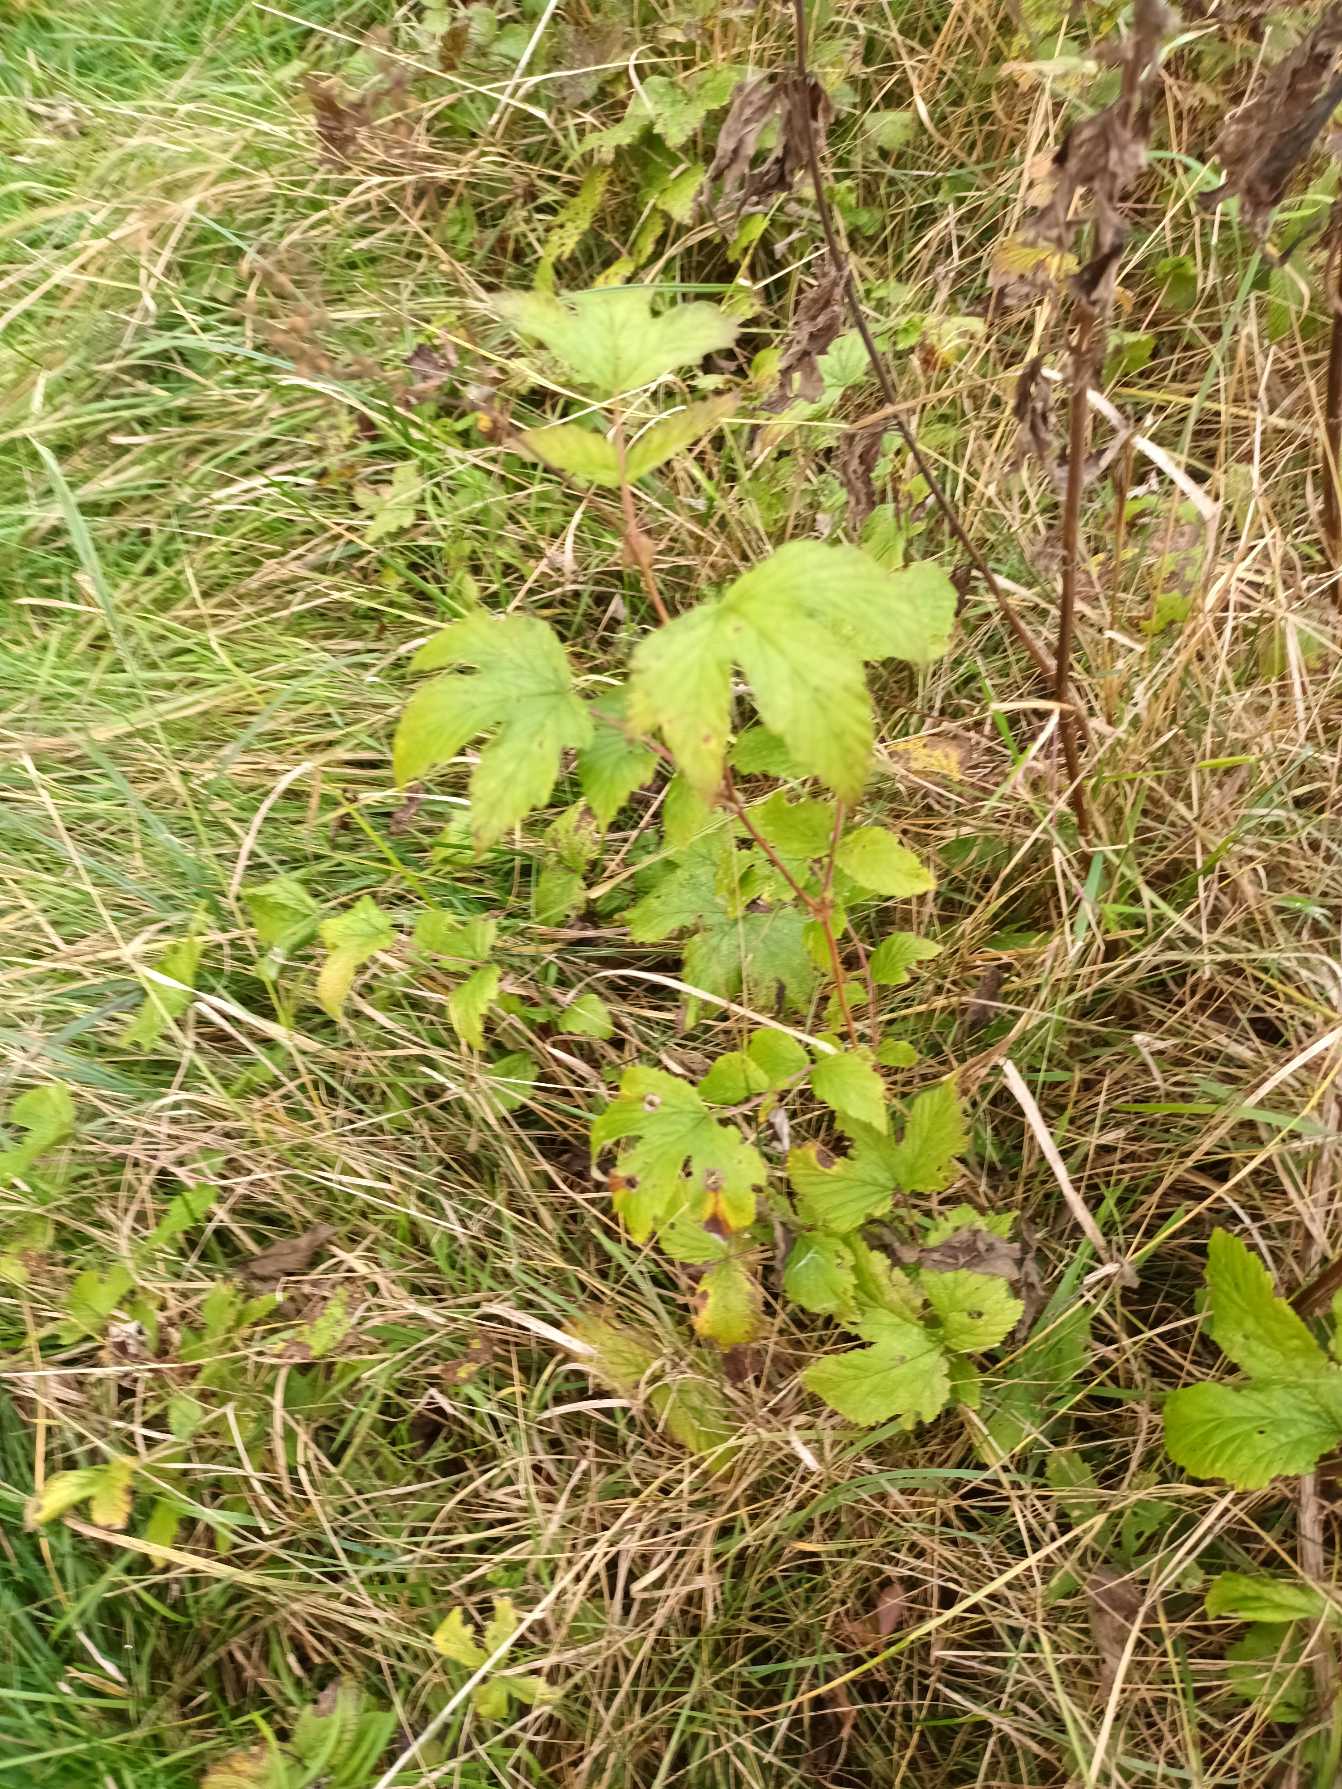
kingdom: Plantae
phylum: Tracheophyta
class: Magnoliopsida
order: Rosales
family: Rosaceae
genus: Filipendula
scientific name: Filipendula ulmaria
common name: Almindelig mjødurt
